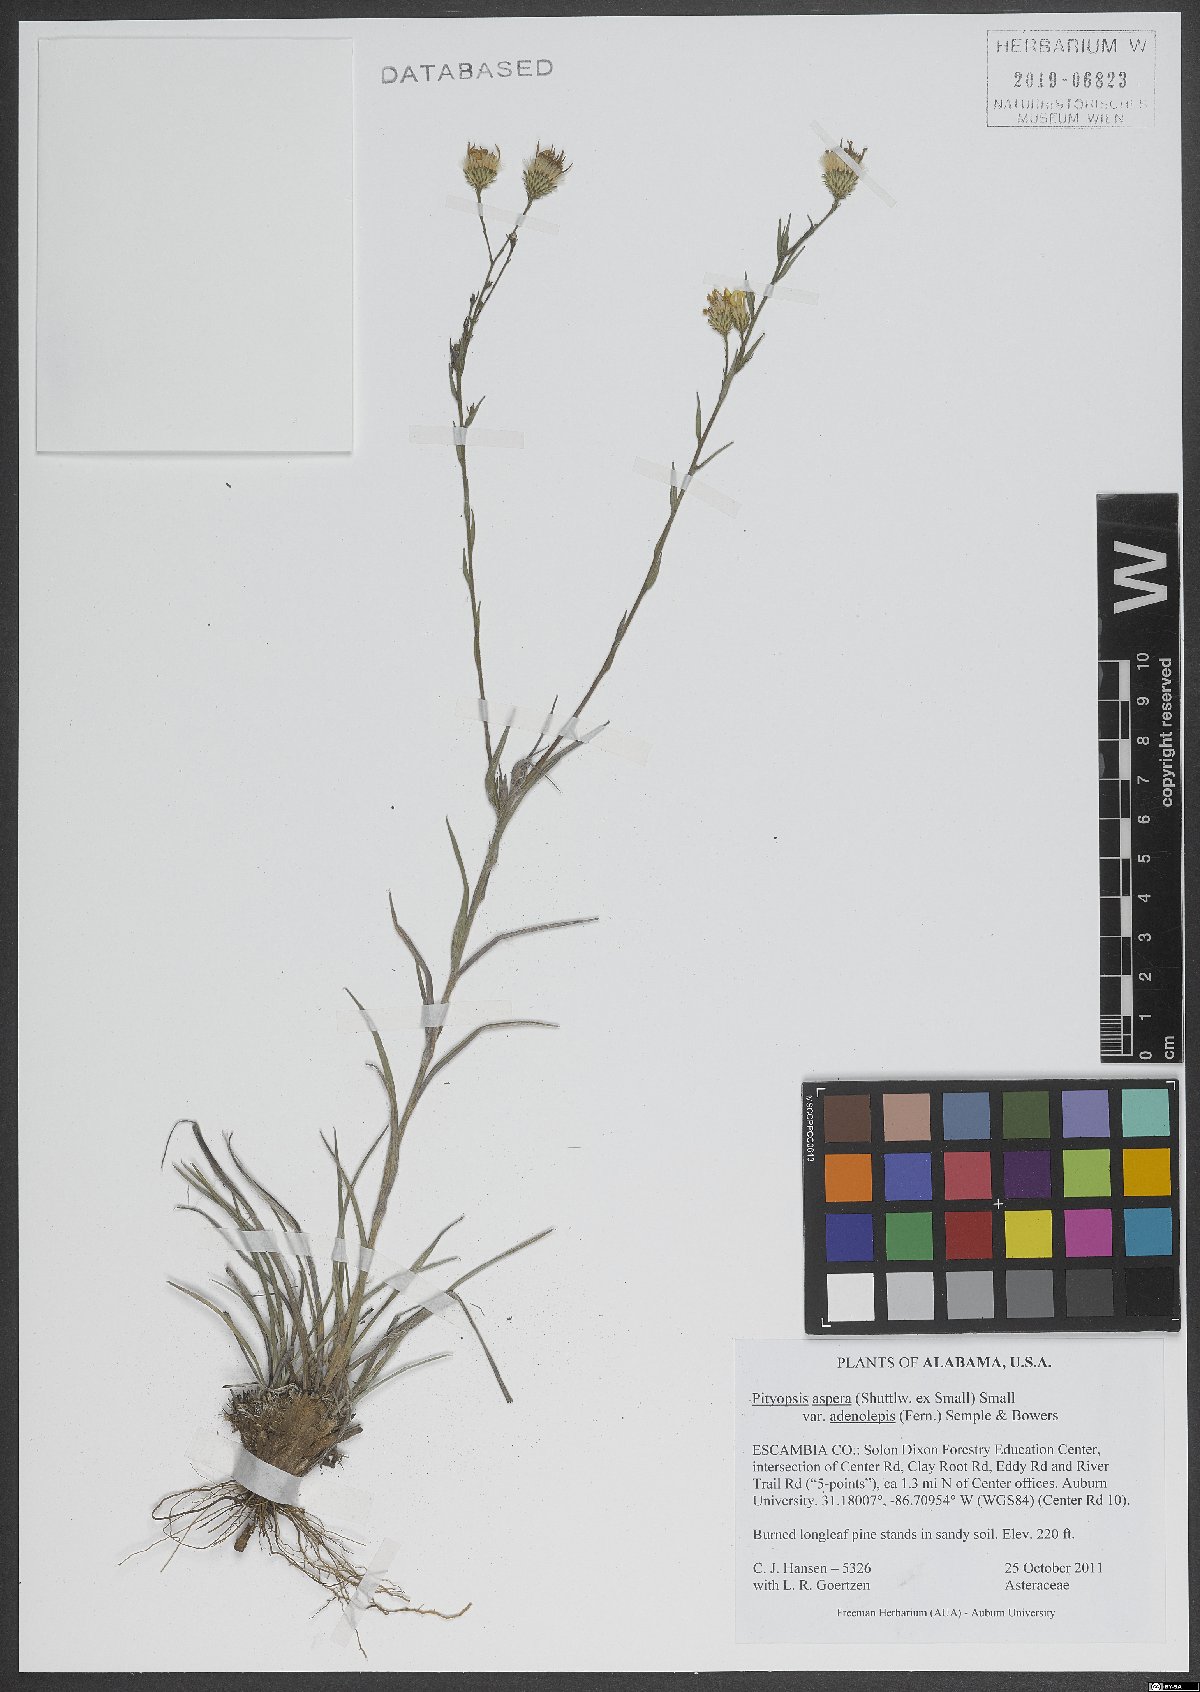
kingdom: Plantae
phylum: Tracheophyta
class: Magnoliopsida
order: Asterales
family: Asteraceae
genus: Pityopsis
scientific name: Pityopsis aspera
